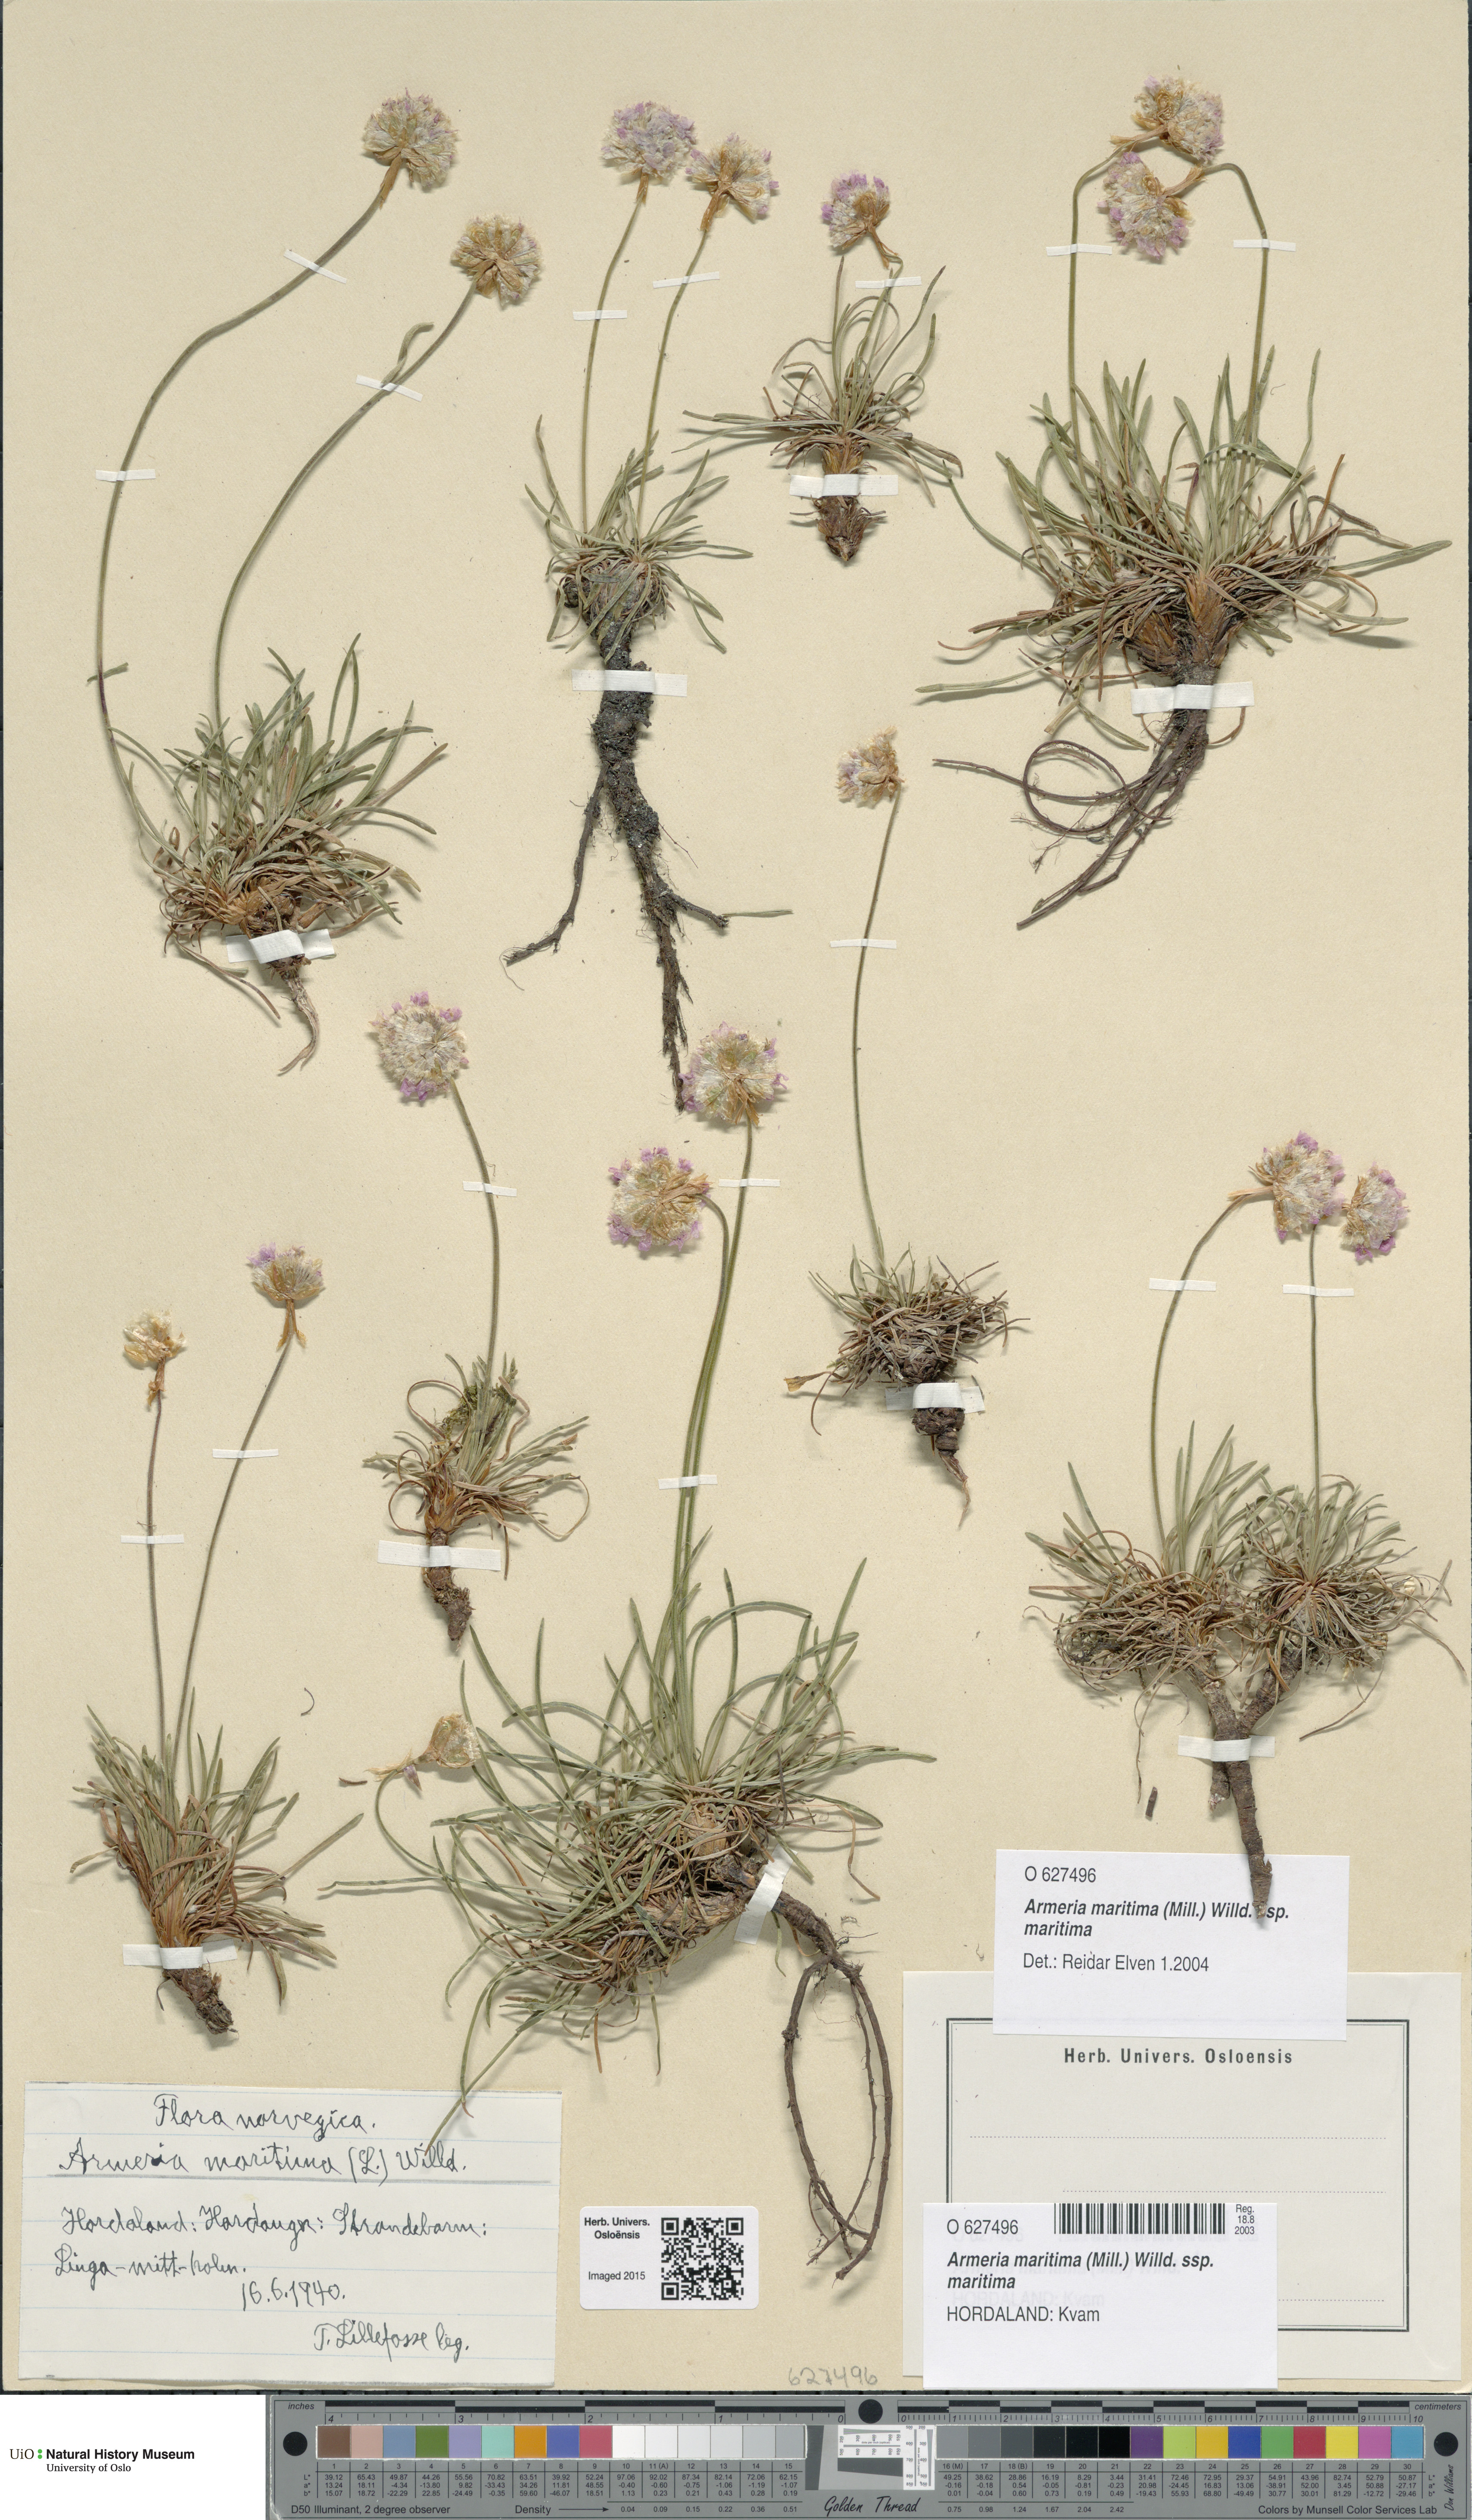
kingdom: Plantae
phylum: Tracheophyta
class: Magnoliopsida
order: Caryophyllales
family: Plumbaginaceae
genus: Armeria
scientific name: Armeria maritima
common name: Thrift
